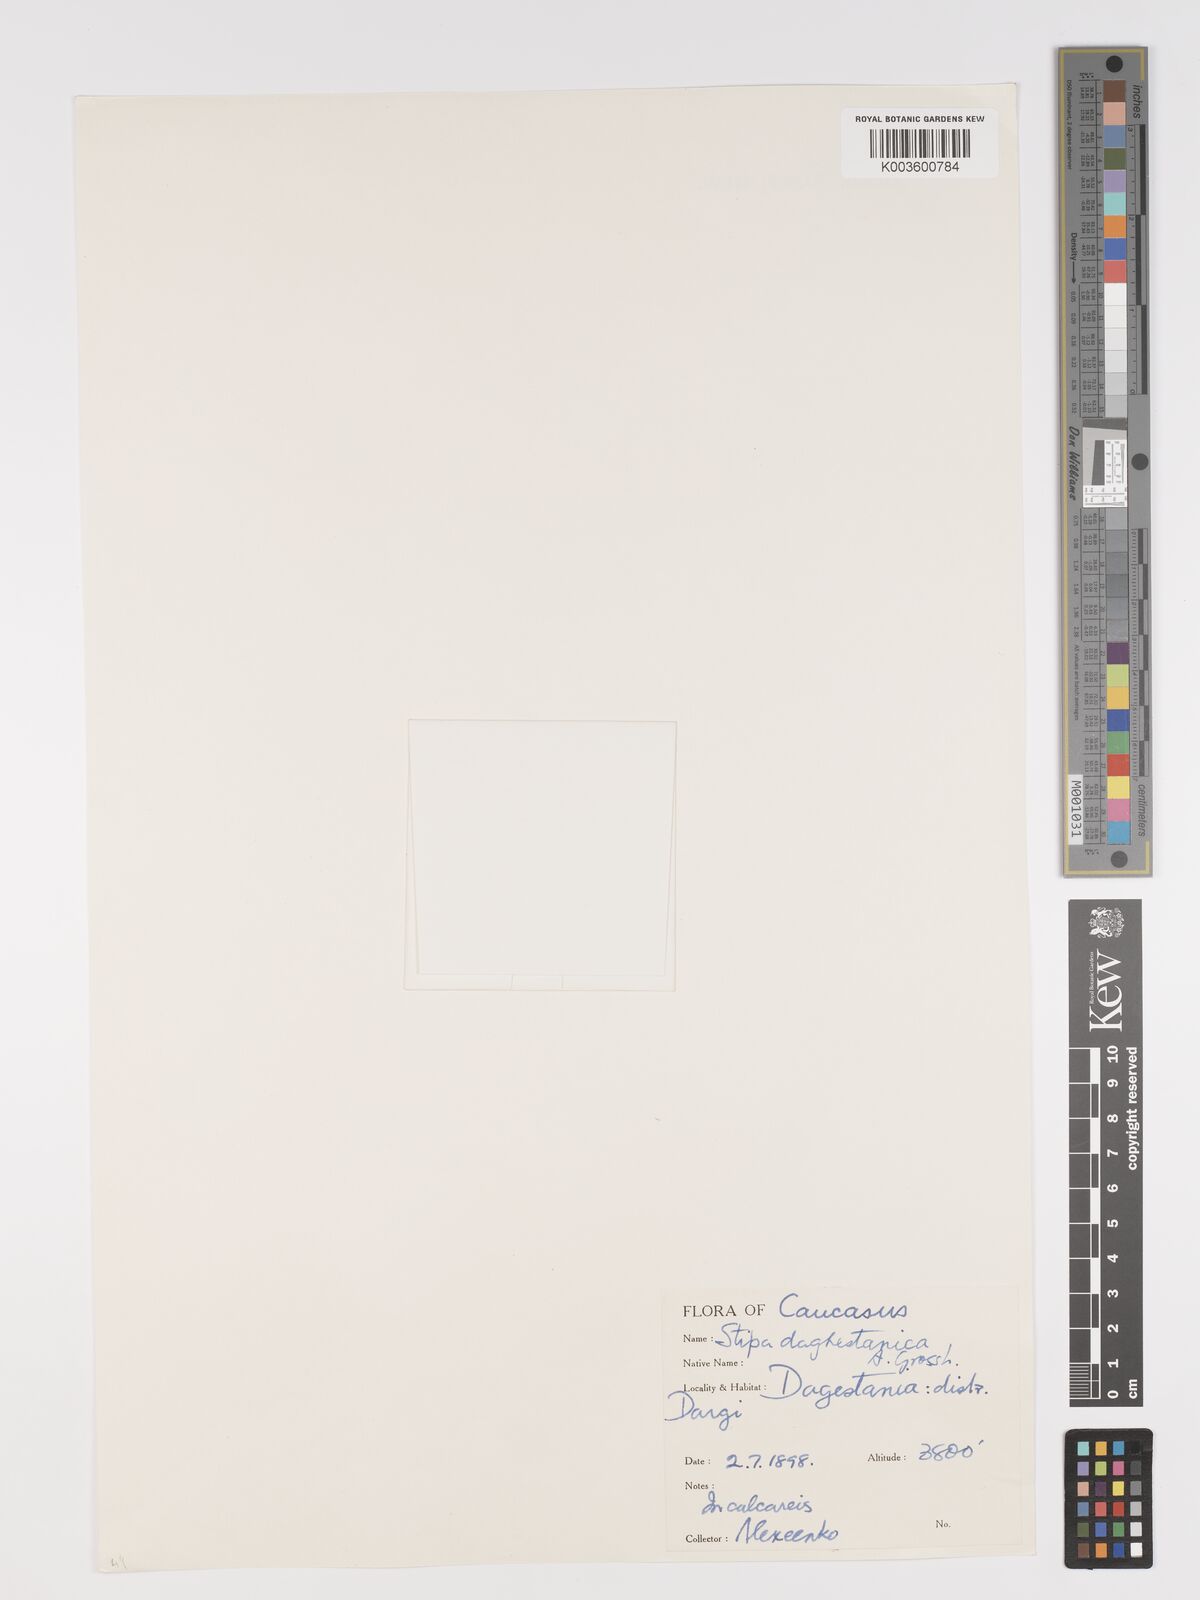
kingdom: Plantae
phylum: Tracheophyta
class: Liliopsida
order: Poales
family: Poaceae
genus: Stipa
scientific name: Stipa daghestanica
